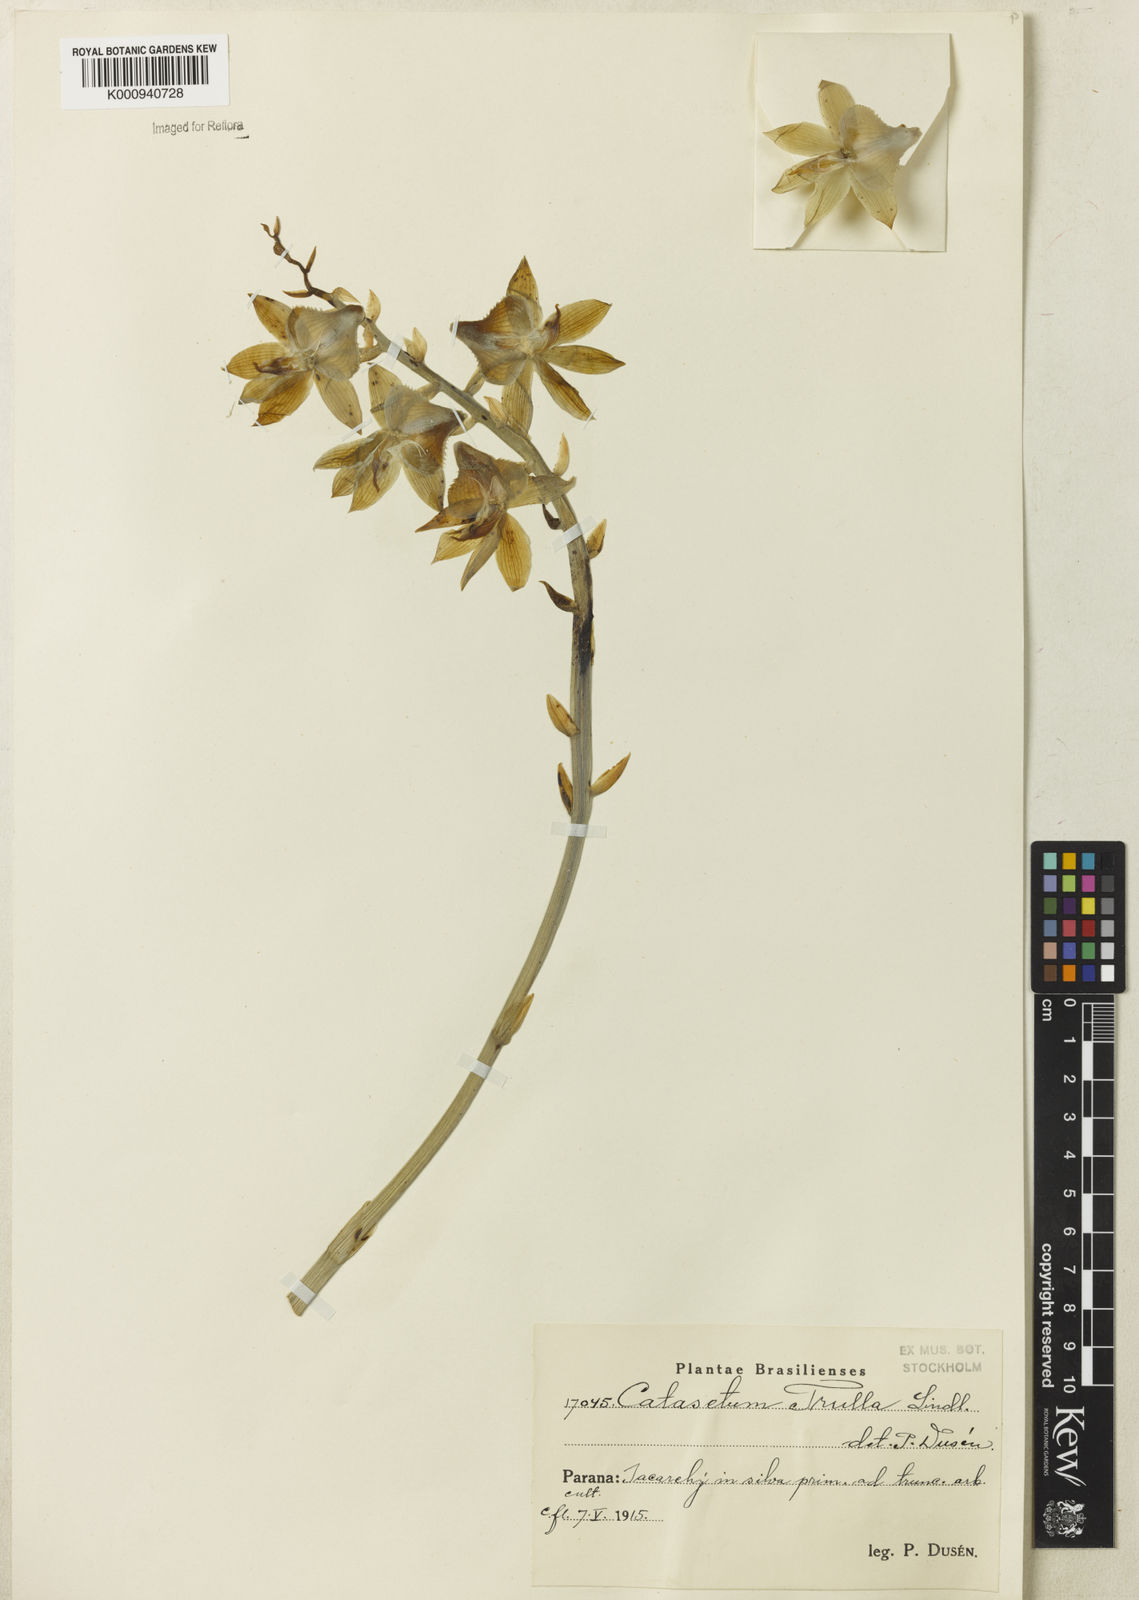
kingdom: Plantae
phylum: Tracheophyta
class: Liliopsida
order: Asparagales
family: Orchidaceae
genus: Catasetum
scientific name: Catasetum socco
